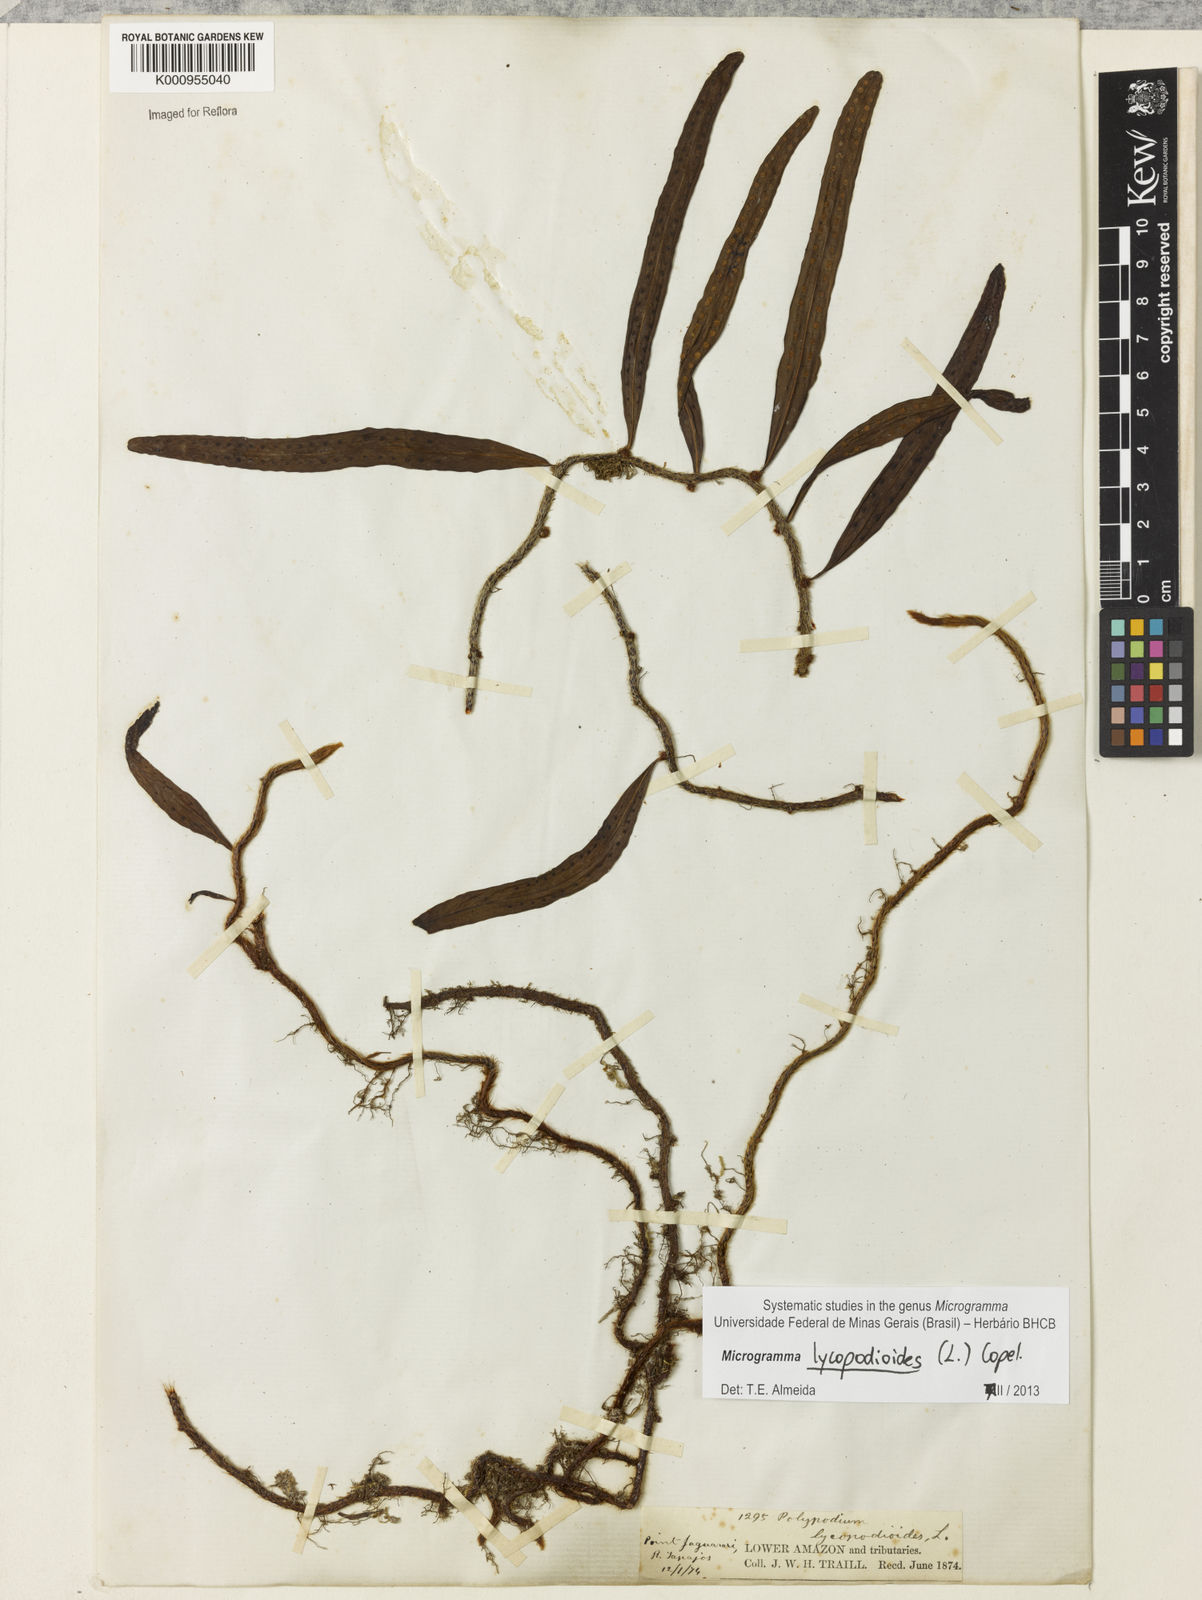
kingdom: Plantae
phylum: Tracheophyta
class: Polypodiopsida
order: Polypodiales
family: Polypodiaceae
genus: Microgramma
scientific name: Microgramma lycopodioides
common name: Bastard catclaw
